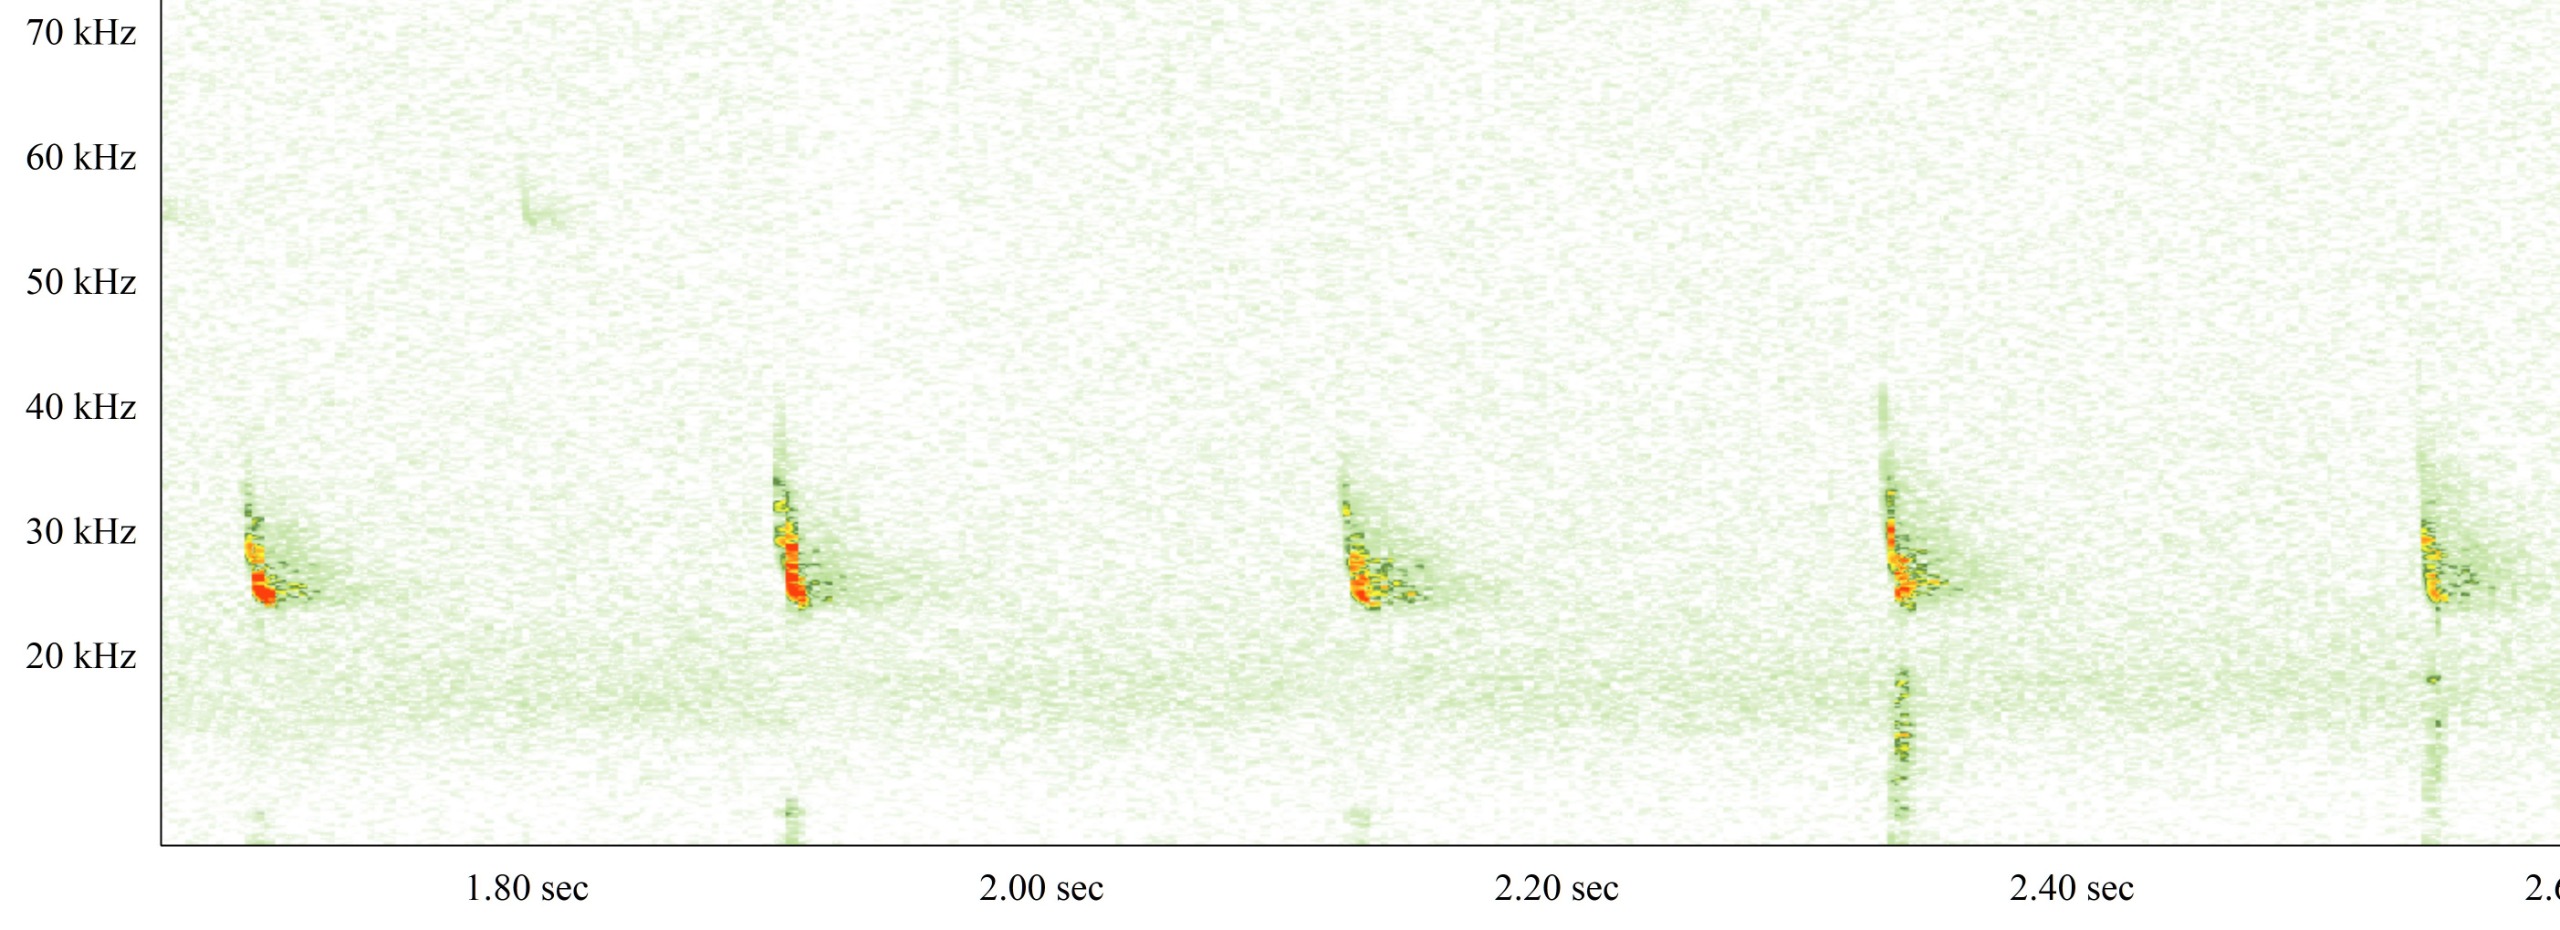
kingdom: Animalia
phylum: Chordata
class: Mammalia
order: Chiroptera
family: Vespertilionidae
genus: Vespertilio
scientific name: Vespertilio murinus
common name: Skimmelflagermus
